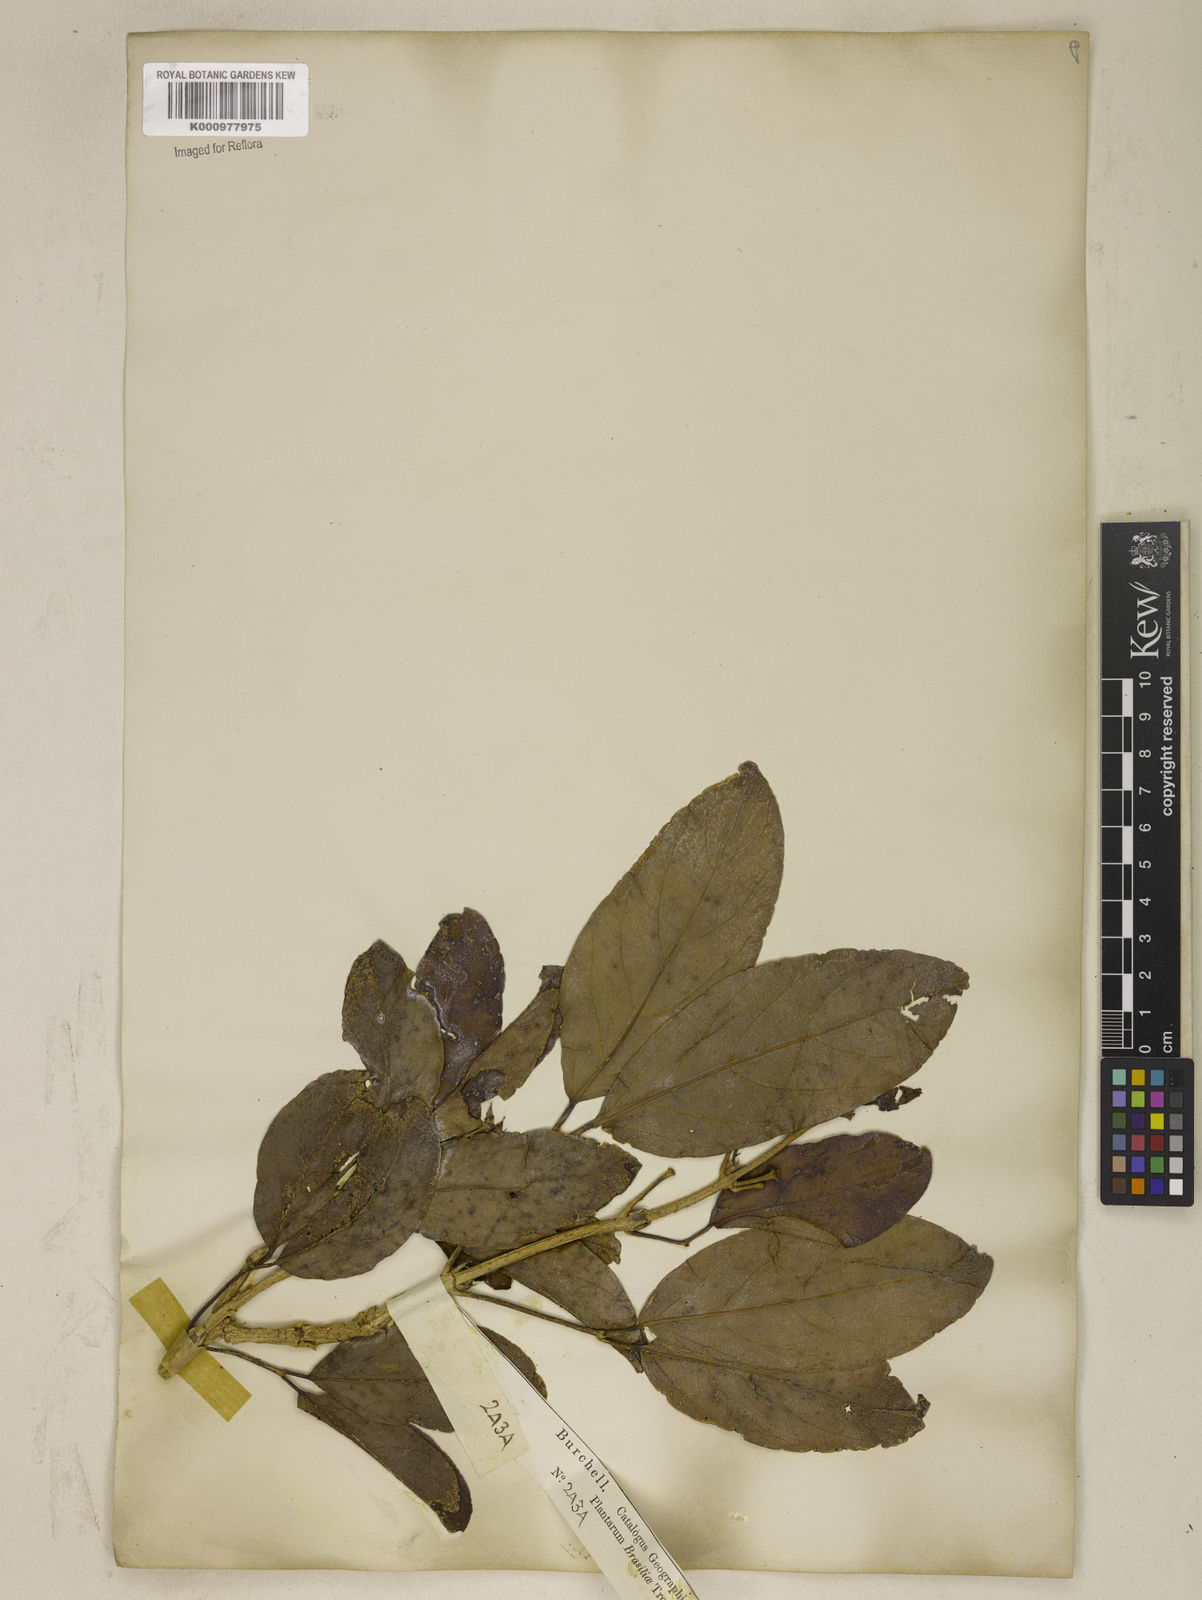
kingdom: Plantae
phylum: Tracheophyta
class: Magnoliopsida
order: Lamiales
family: Bignoniaceae
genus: Tanaecium
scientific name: Tanaecium pyramidatum
